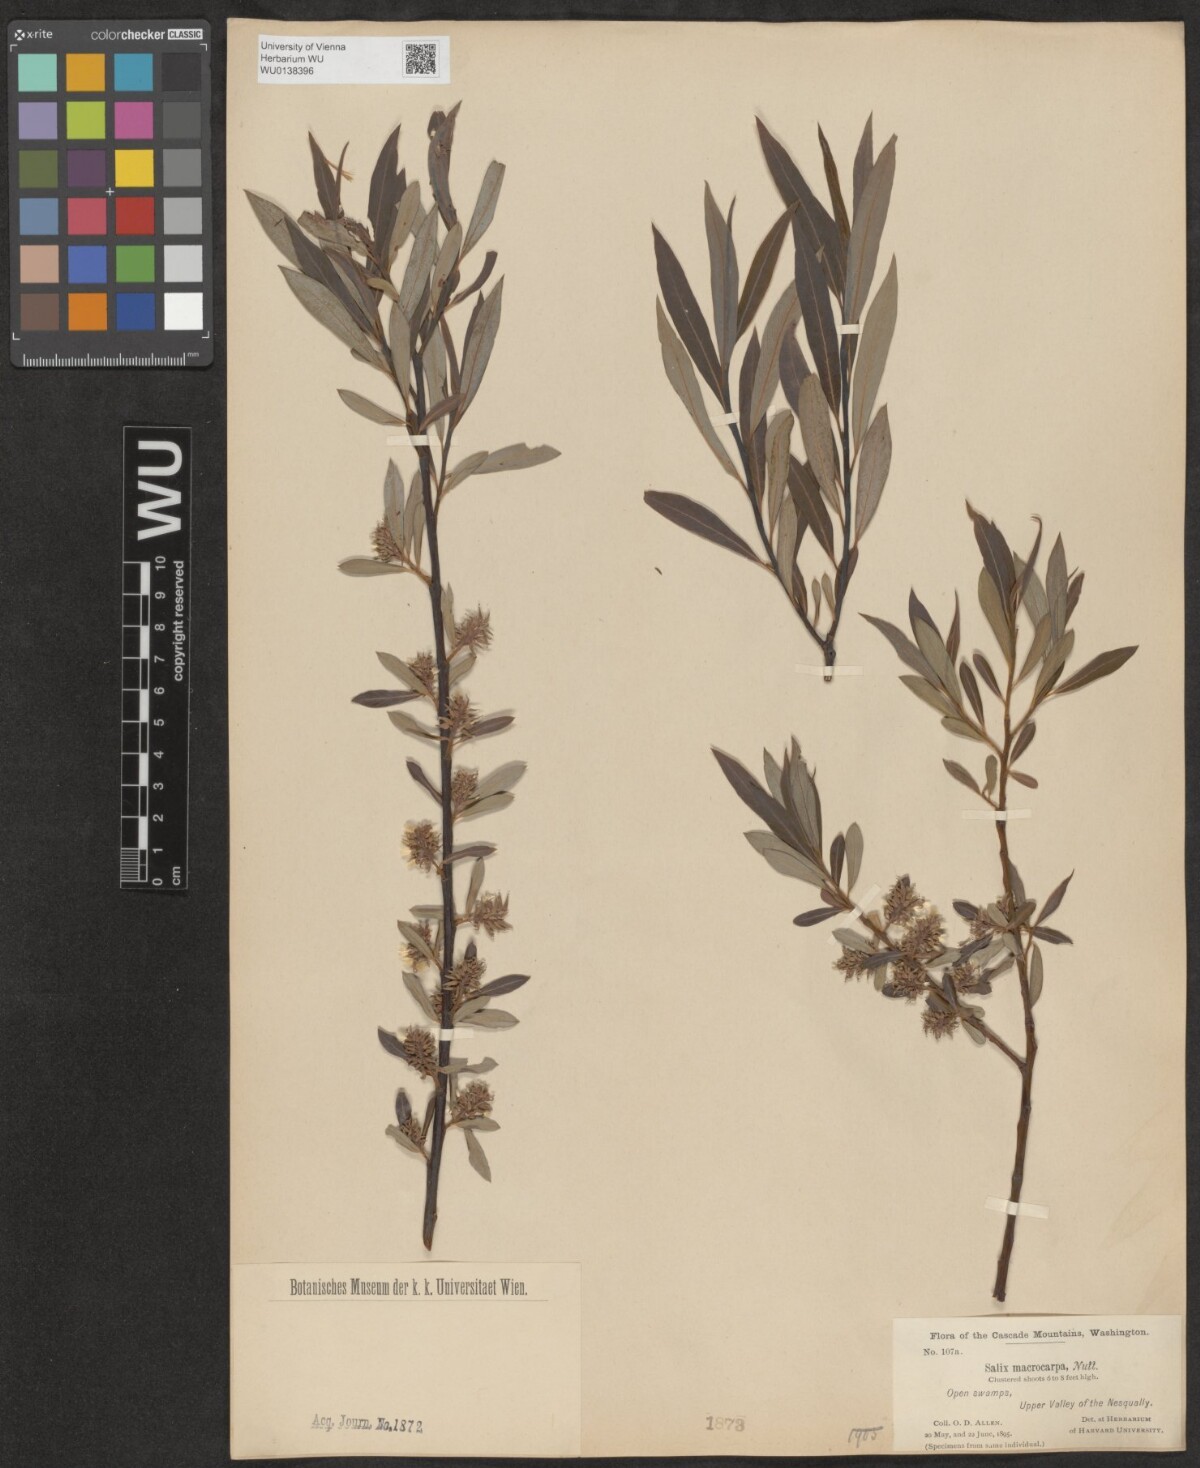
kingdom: Plantae
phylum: Tracheophyta
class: Magnoliopsida
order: Malpighiales
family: Salicaceae
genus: Salix
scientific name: Salix glauca
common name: Glaucous willow
